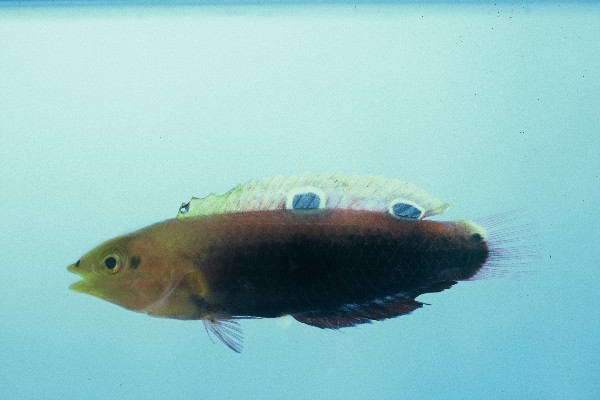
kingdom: Animalia
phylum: Chordata
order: Perciformes
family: Labridae
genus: Halichoeres
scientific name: Halichoeres iridis
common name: Rainbow wrasse
